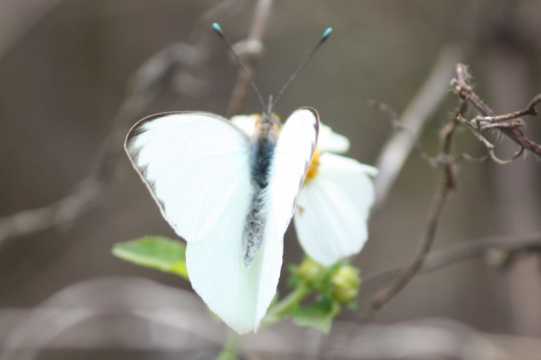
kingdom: Animalia
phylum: Arthropoda
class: Insecta
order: Lepidoptera
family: Pieridae
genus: Ascia
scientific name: Ascia monuste
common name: Great Southern White
